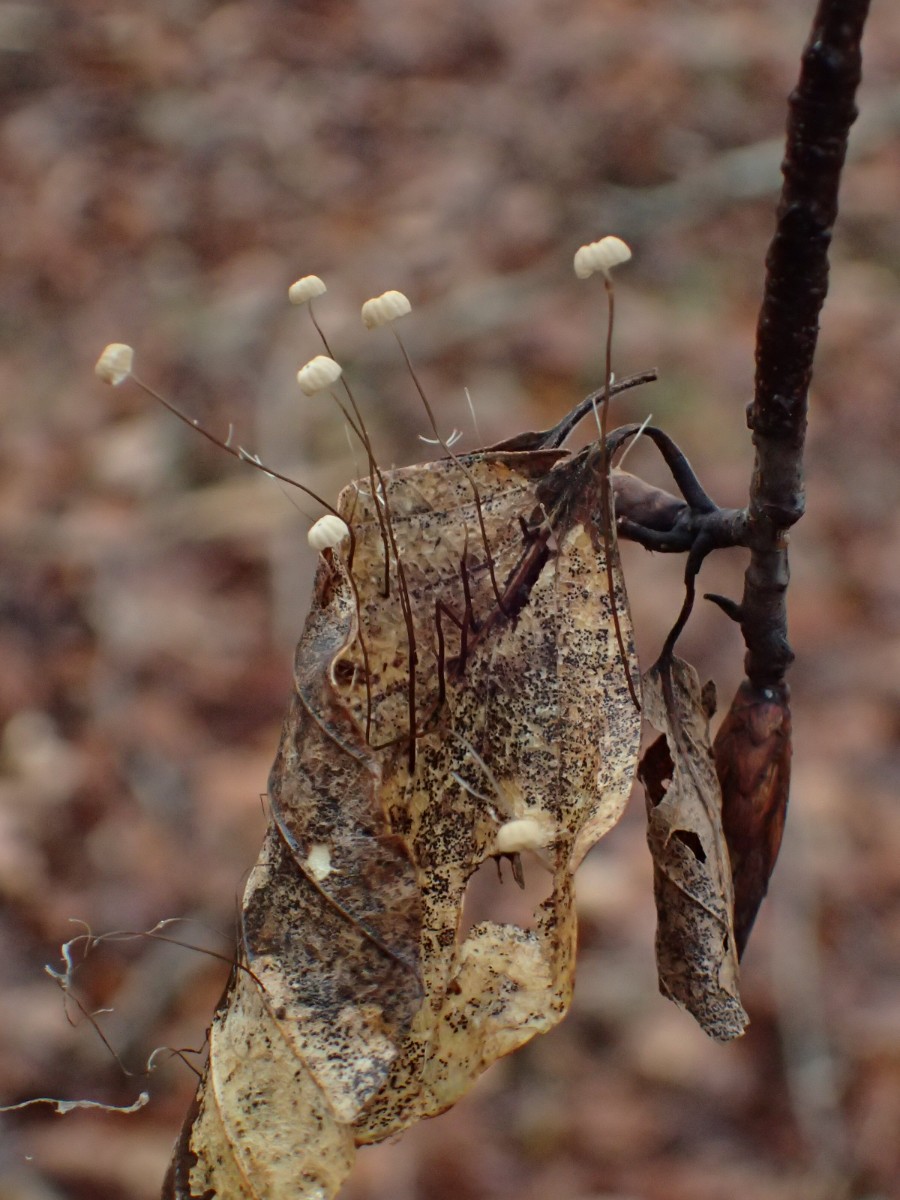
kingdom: Fungi
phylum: Basidiomycota
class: Agaricomycetes
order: Agaricales
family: Marasmiaceae
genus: Marasmius
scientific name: Marasmius bulliardii
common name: furet bruskhat
